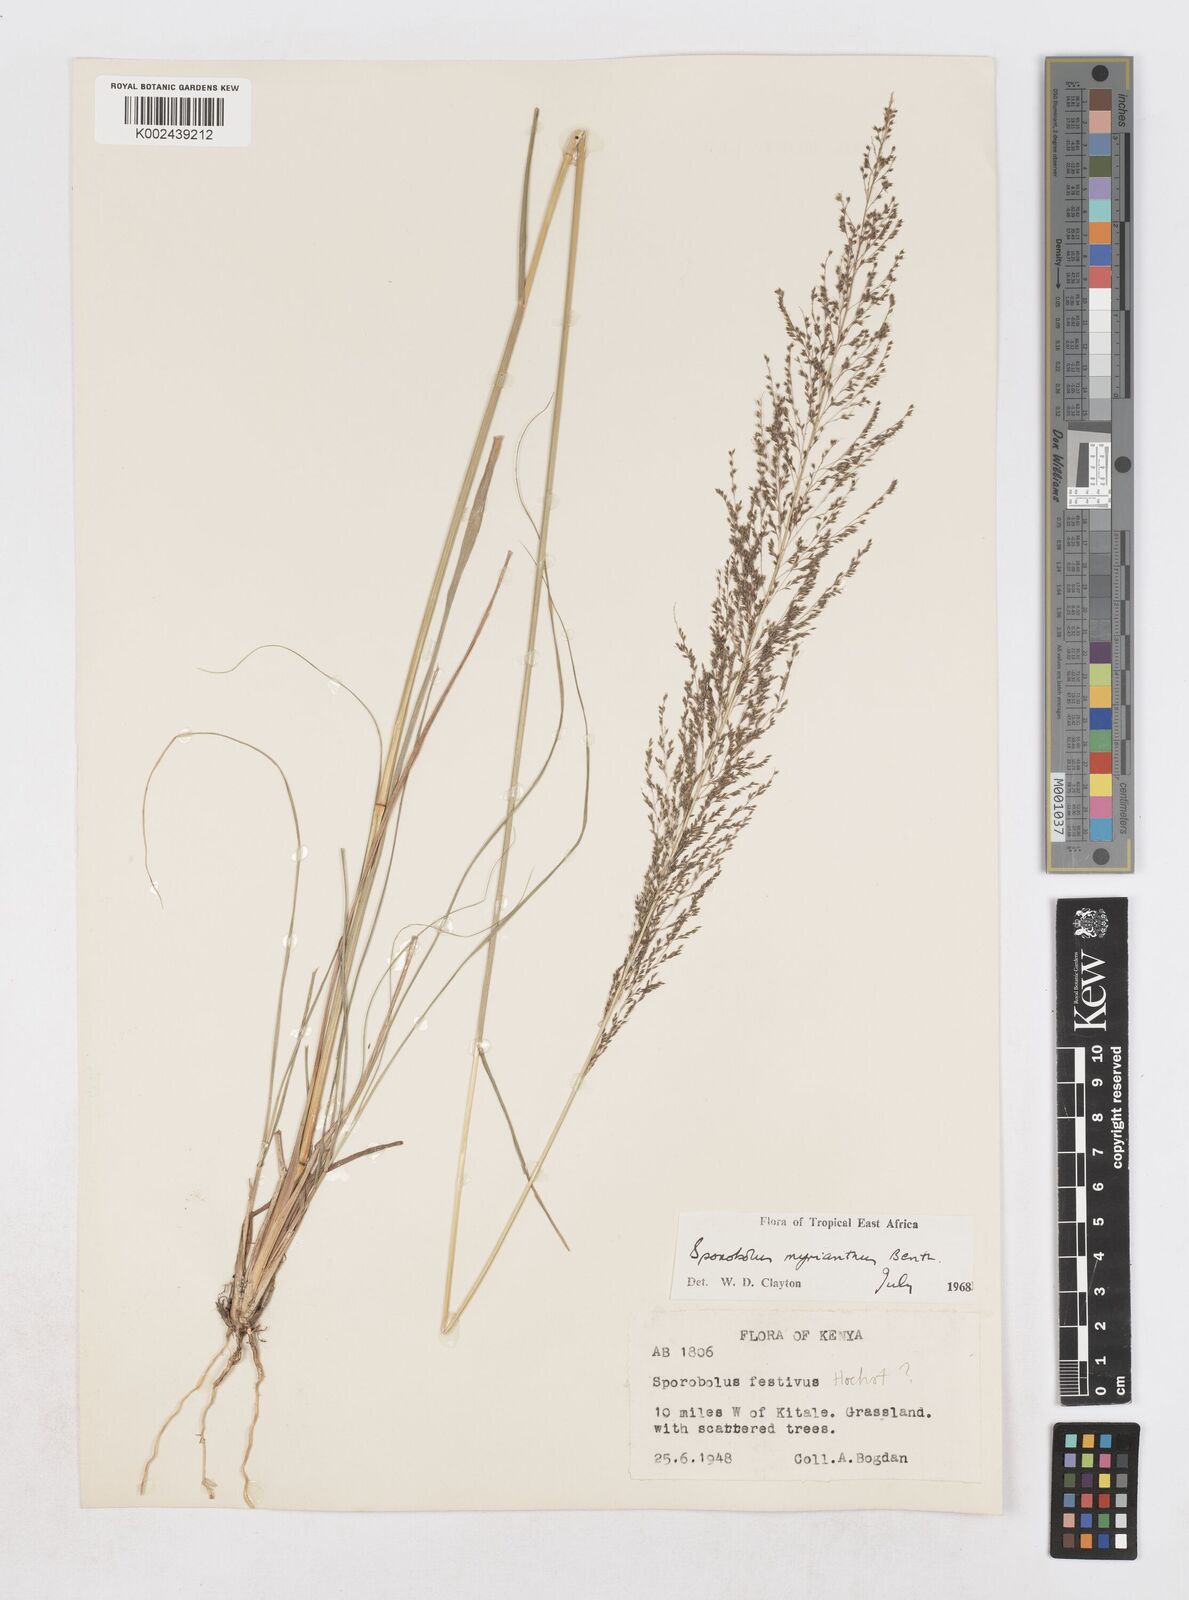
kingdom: Plantae
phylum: Tracheophyta
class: Liliopsida
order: Poales
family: Poaceae
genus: Sporobolus
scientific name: Sporobolus myrianthus
